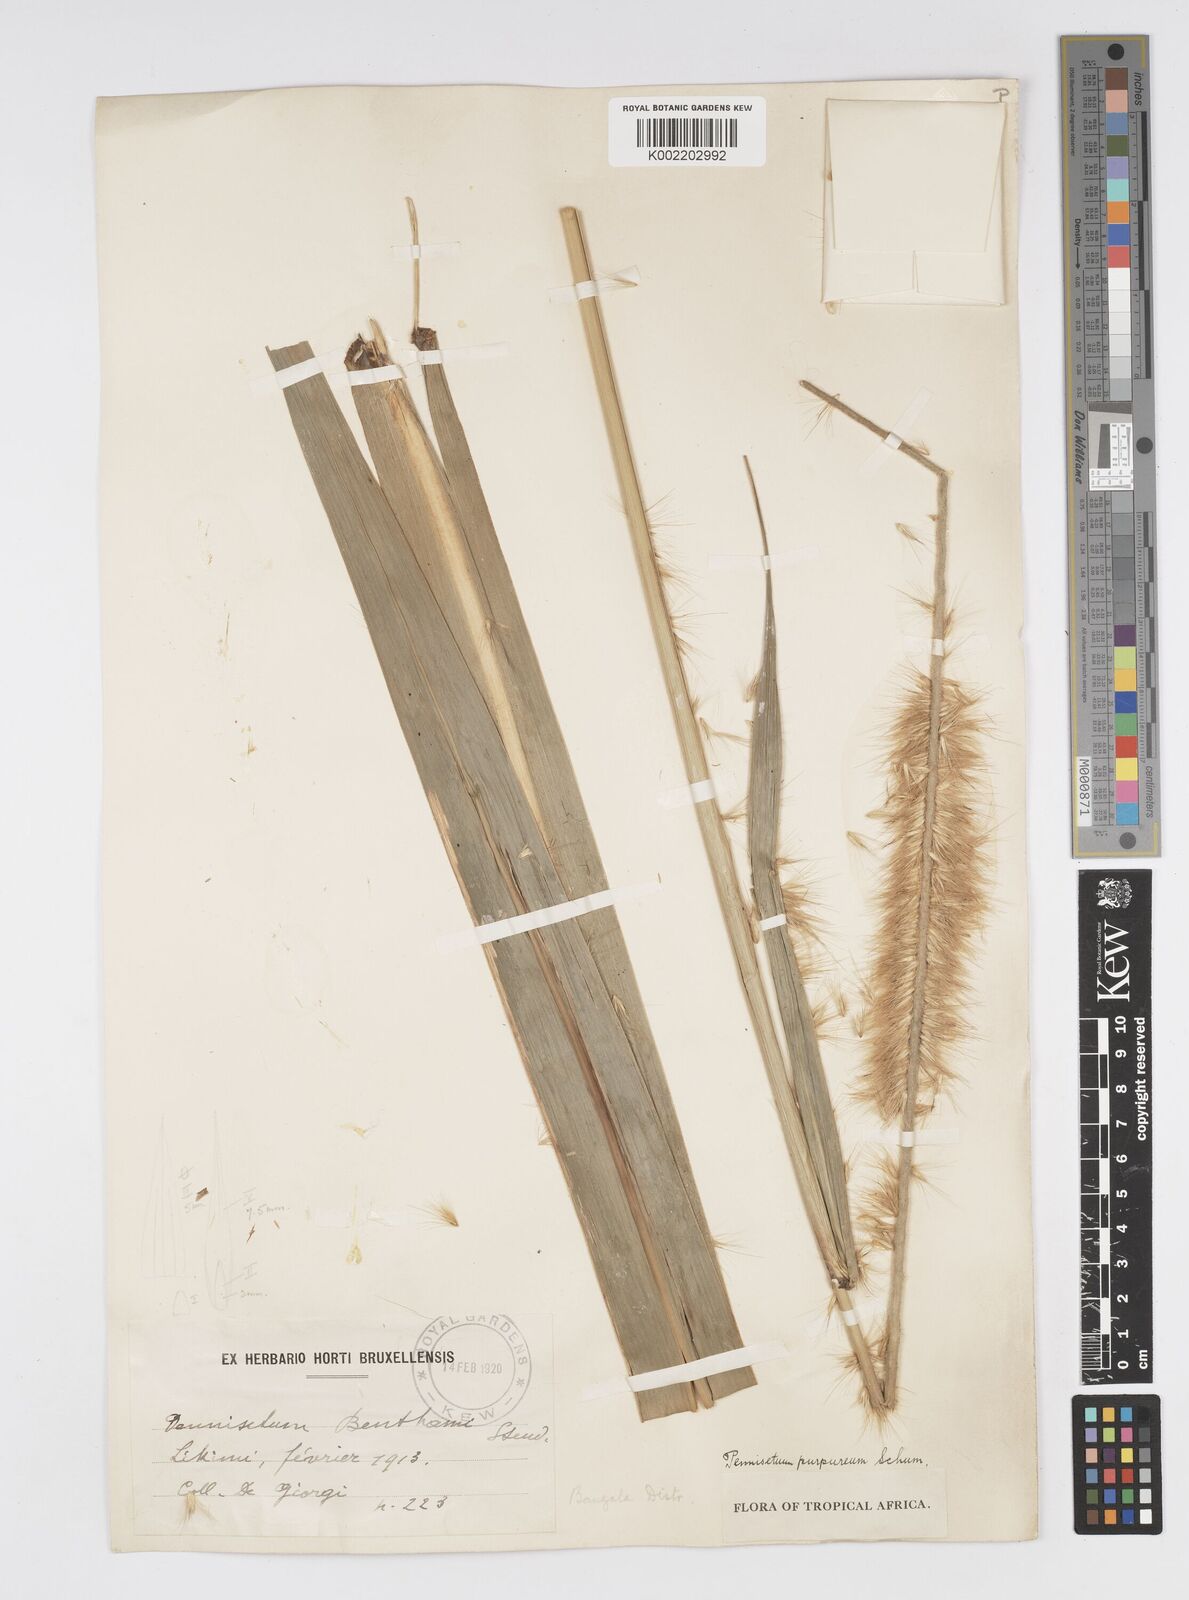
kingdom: Plantae
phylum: Tracheophyta
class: Liliopsida
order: Poales
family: Poaceae
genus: Cenchrus
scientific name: Cenchrus purpureus
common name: Elephant grass
